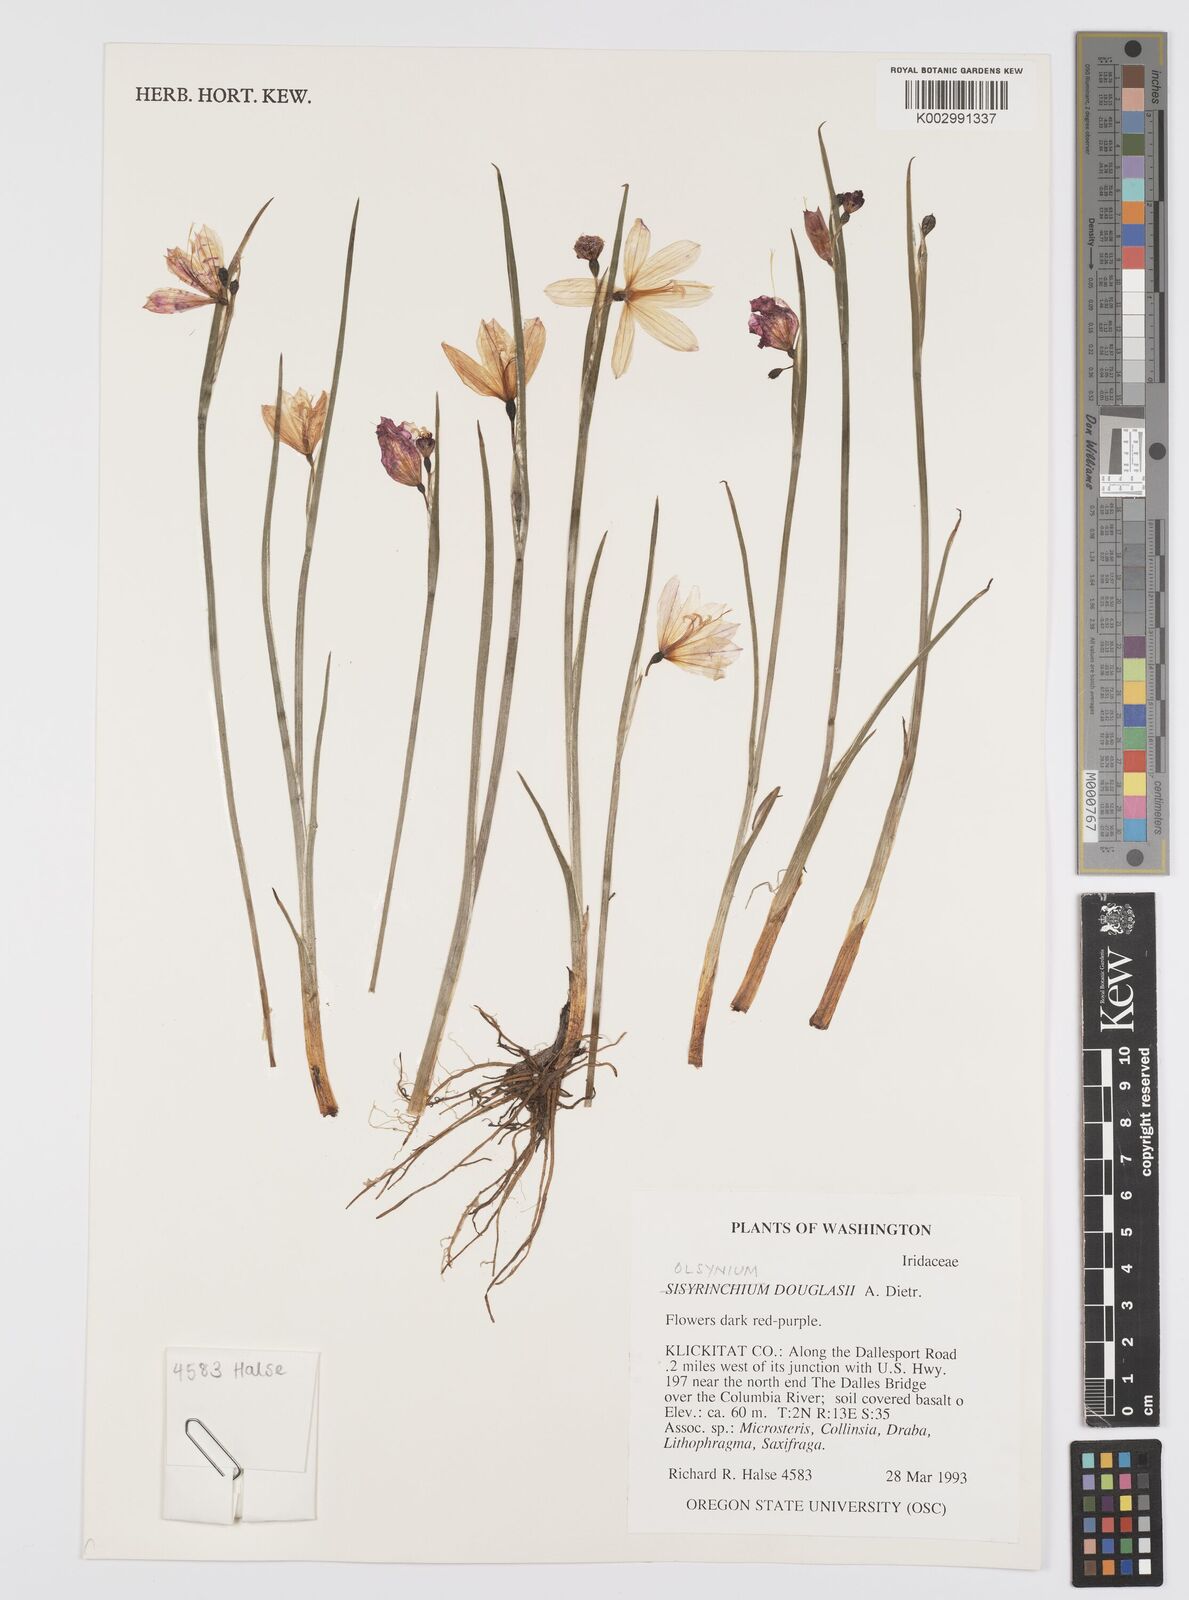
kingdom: Plantae
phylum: Tracheophyta
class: Liliopsida
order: Asparagales
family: Iridaceae
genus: Olsynium
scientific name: Olsynium douglasii
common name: Douglas' grasswidow
